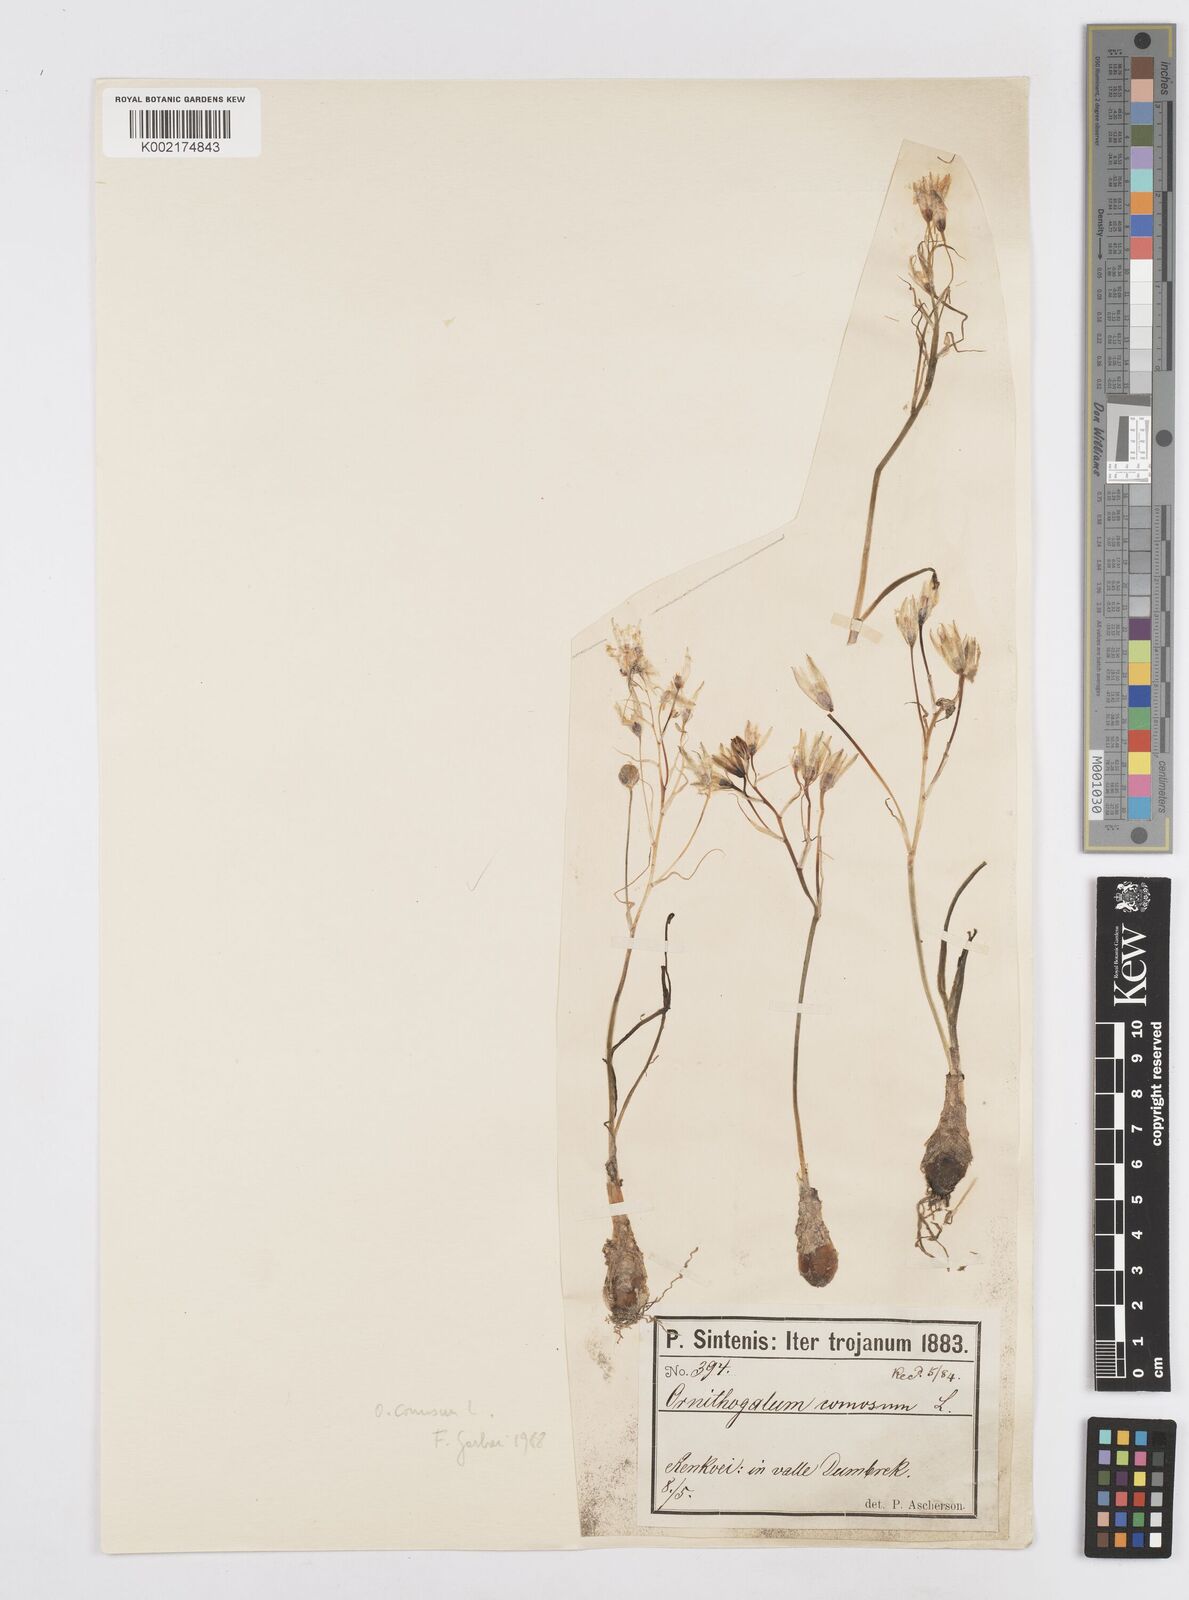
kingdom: Plantae
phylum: Tracheophyta
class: Liliopsida
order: Asparagales
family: Asparagaceae
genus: Ornithogalum
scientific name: Ornithogalum comosum
